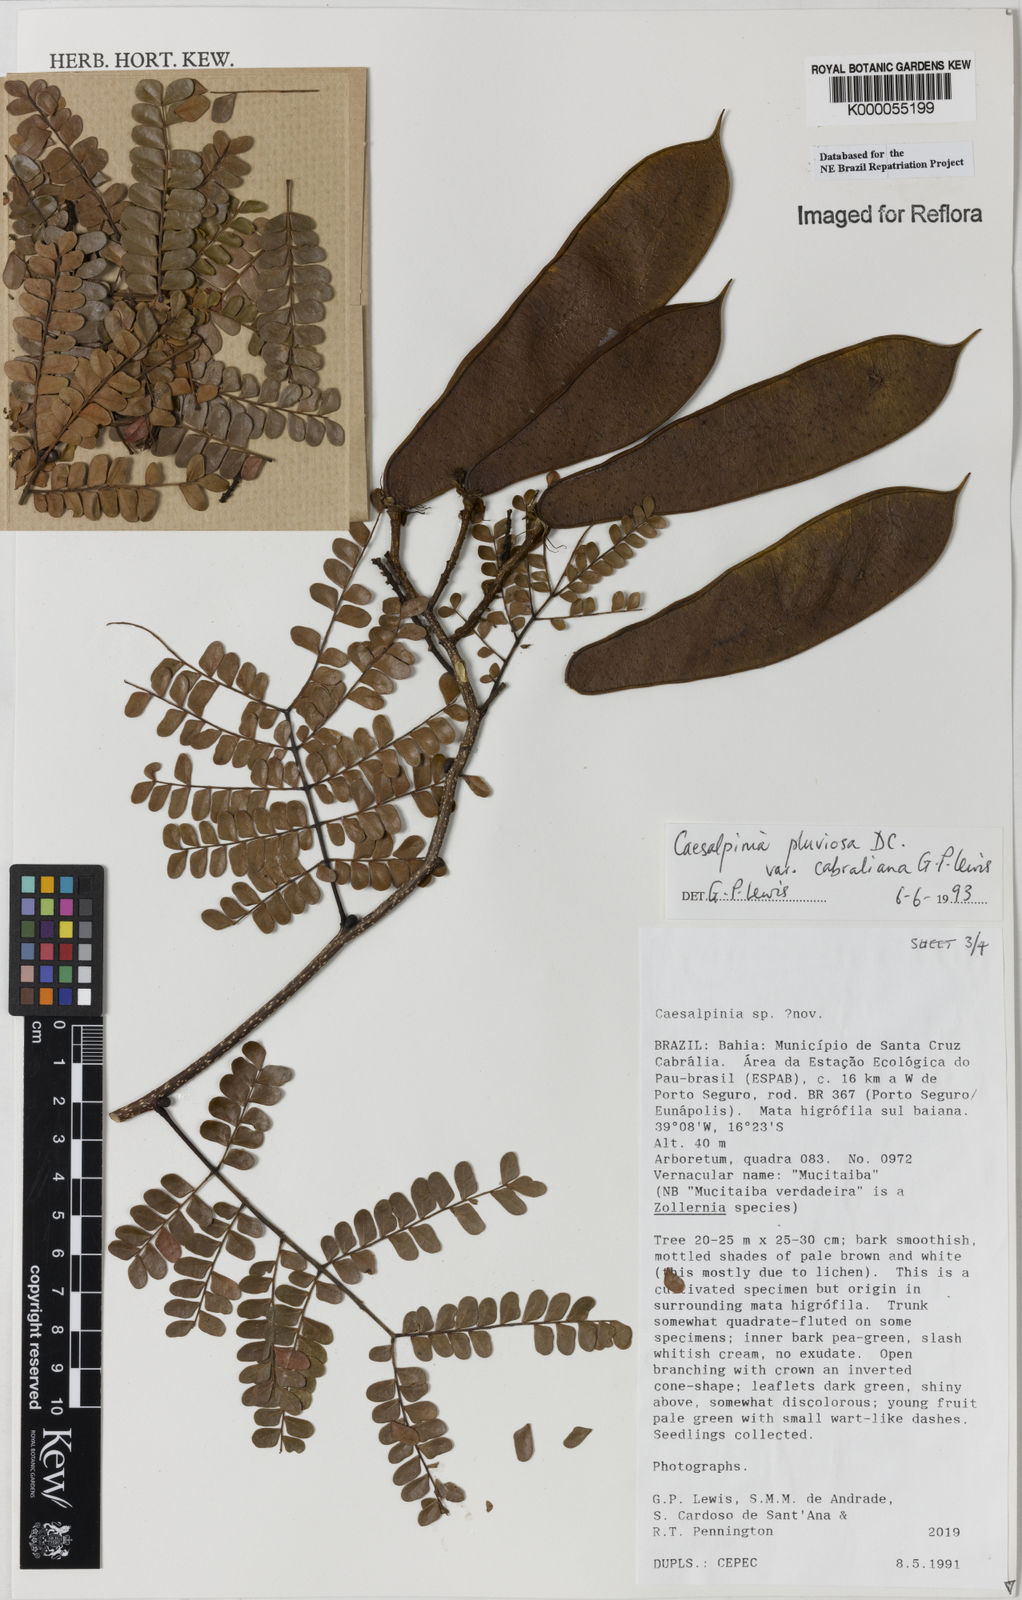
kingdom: Plantae
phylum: Tracheophyta
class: Magnoliopsida
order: Fabales
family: Fabaceae
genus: Cenostigma
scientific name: Cenostigma pluviosum
